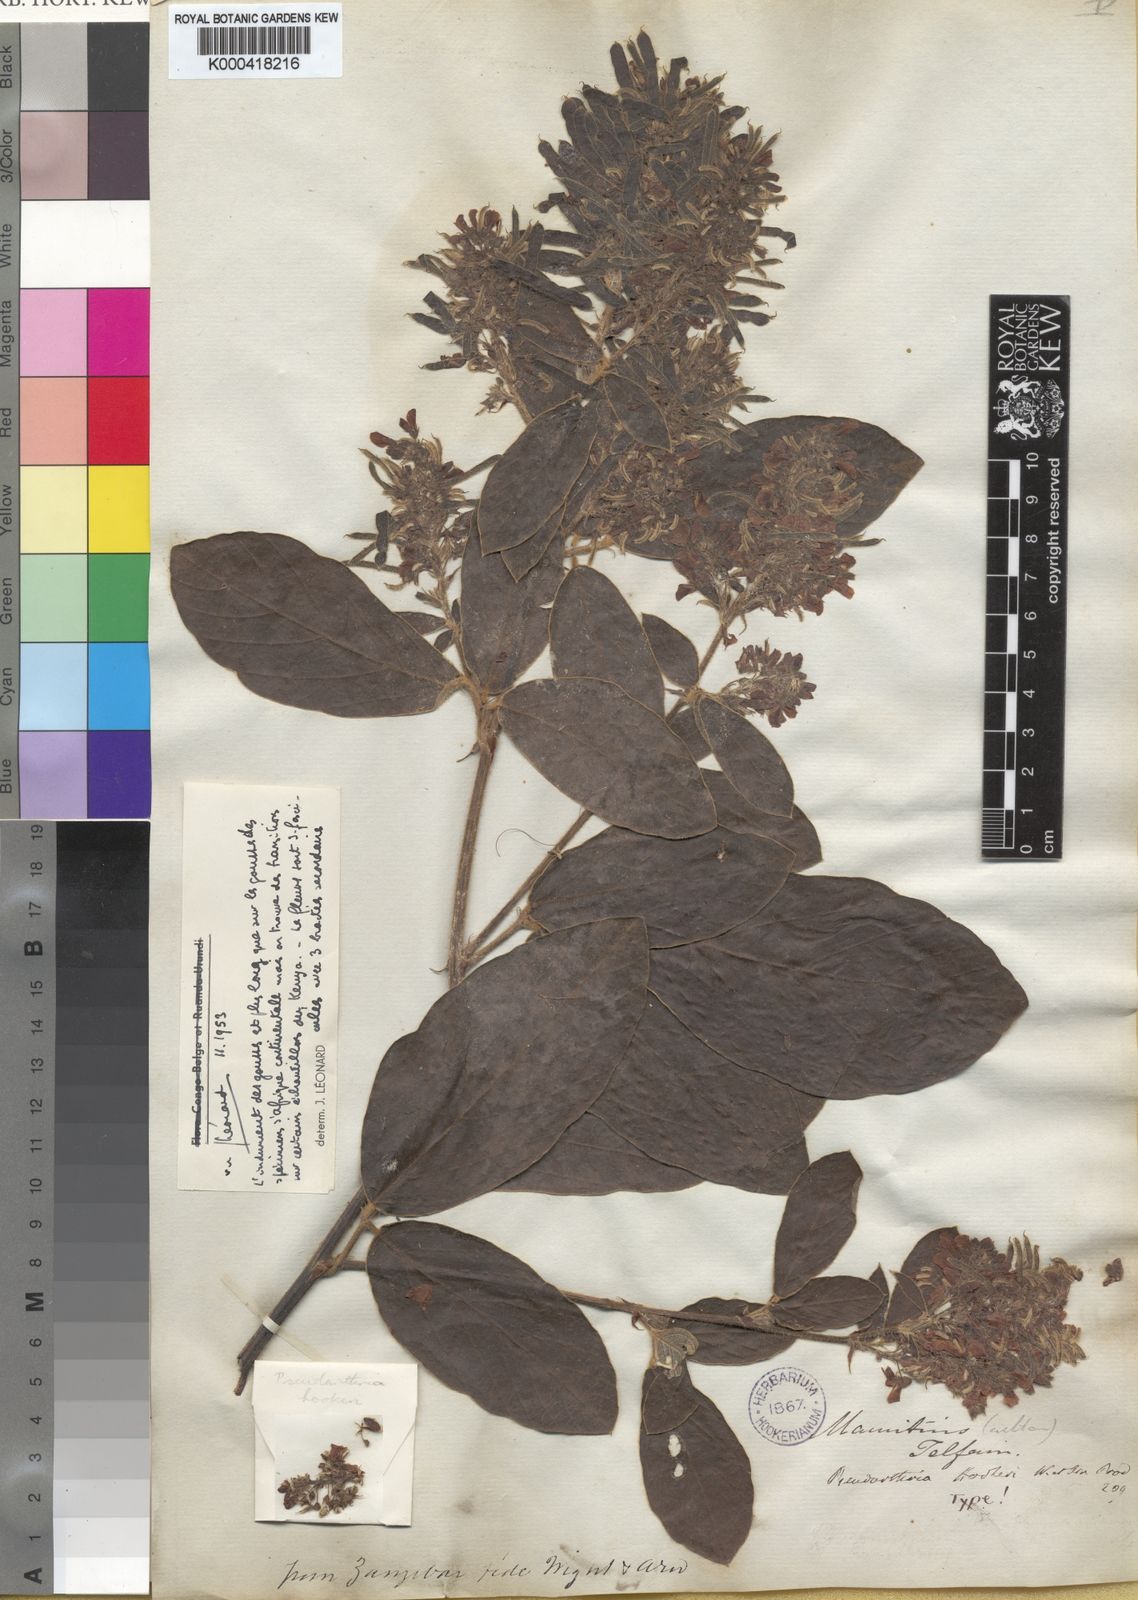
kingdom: Plantae
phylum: Tracheophyta
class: Magnoliopsida
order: Fabales
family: Fabaceae
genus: Pseudarthria
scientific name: Pseudarthria hookeri
